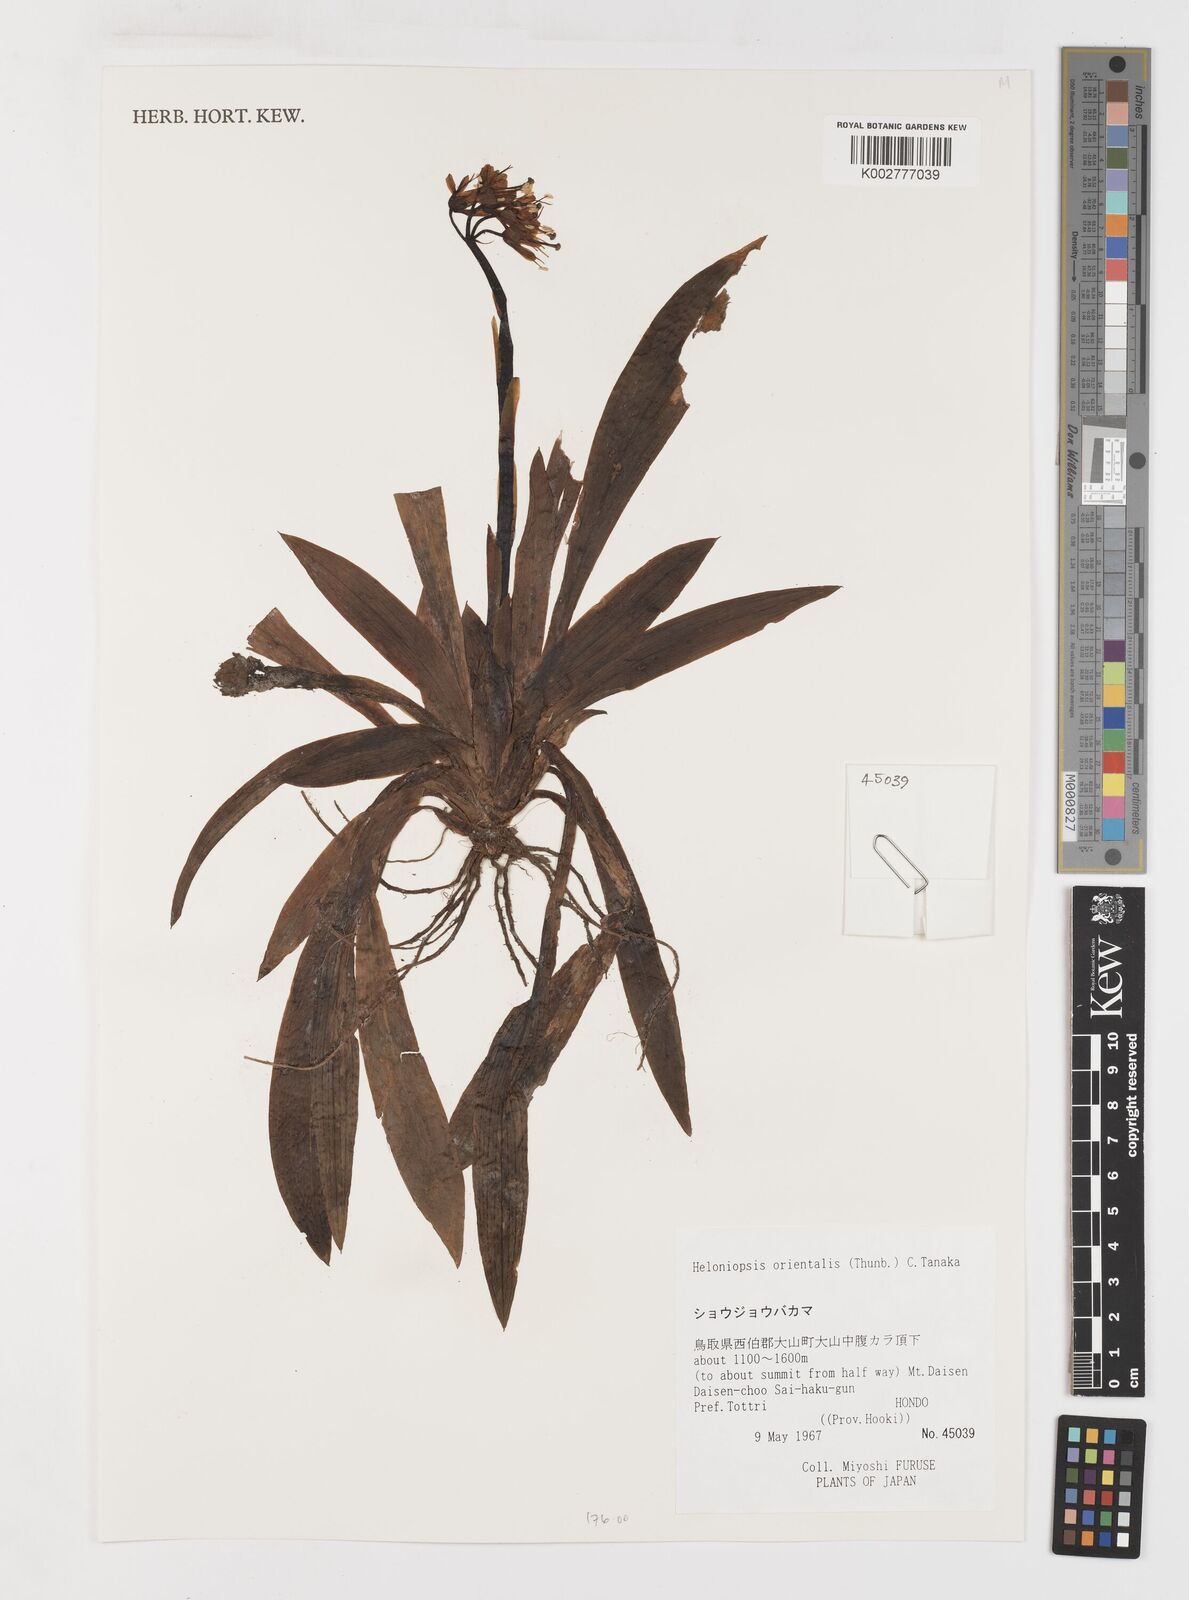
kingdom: Plantae
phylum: Tracheophyta
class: Liliopsida
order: Liliales
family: Melanthiaceae
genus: Helonias
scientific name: Helonias orientalis
